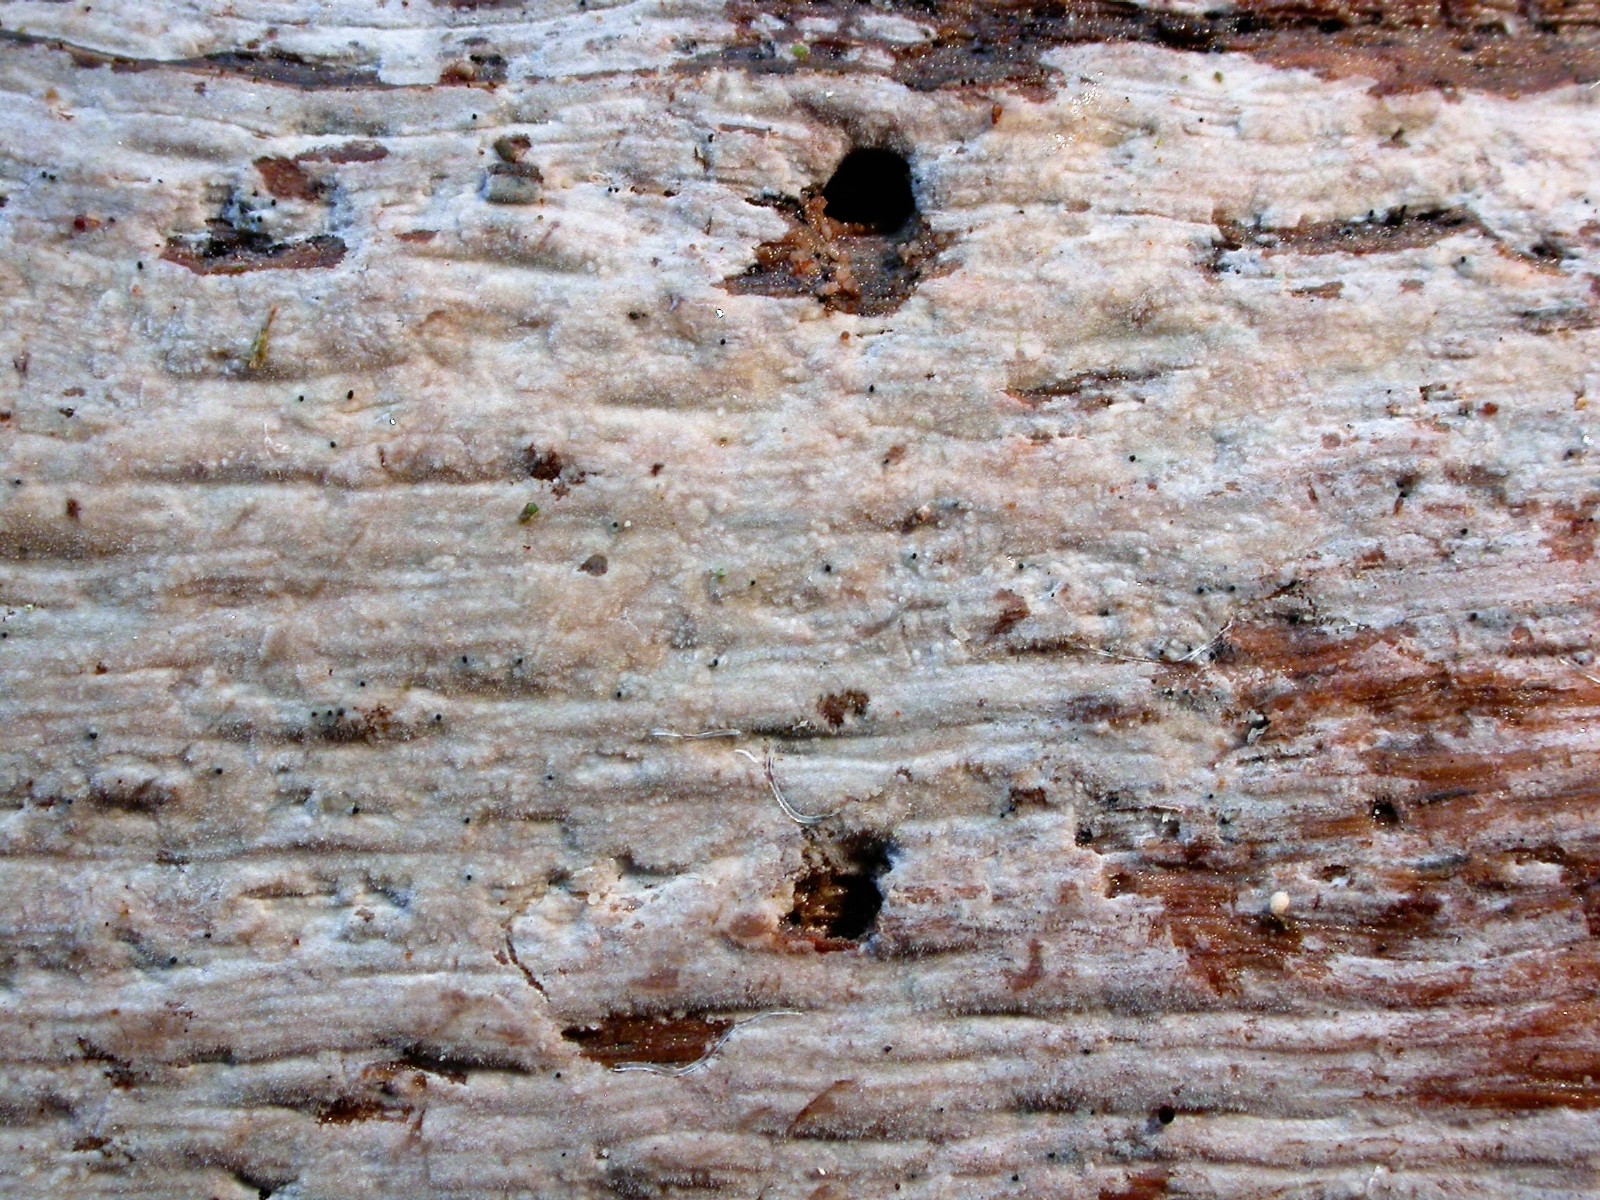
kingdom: Fungi
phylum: Basidiomycota
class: Agaricomycetes
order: Hymenochaetales
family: Rickenellaceae
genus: Peniophorella
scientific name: Peniophorella pubera
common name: dunet kalkskind
